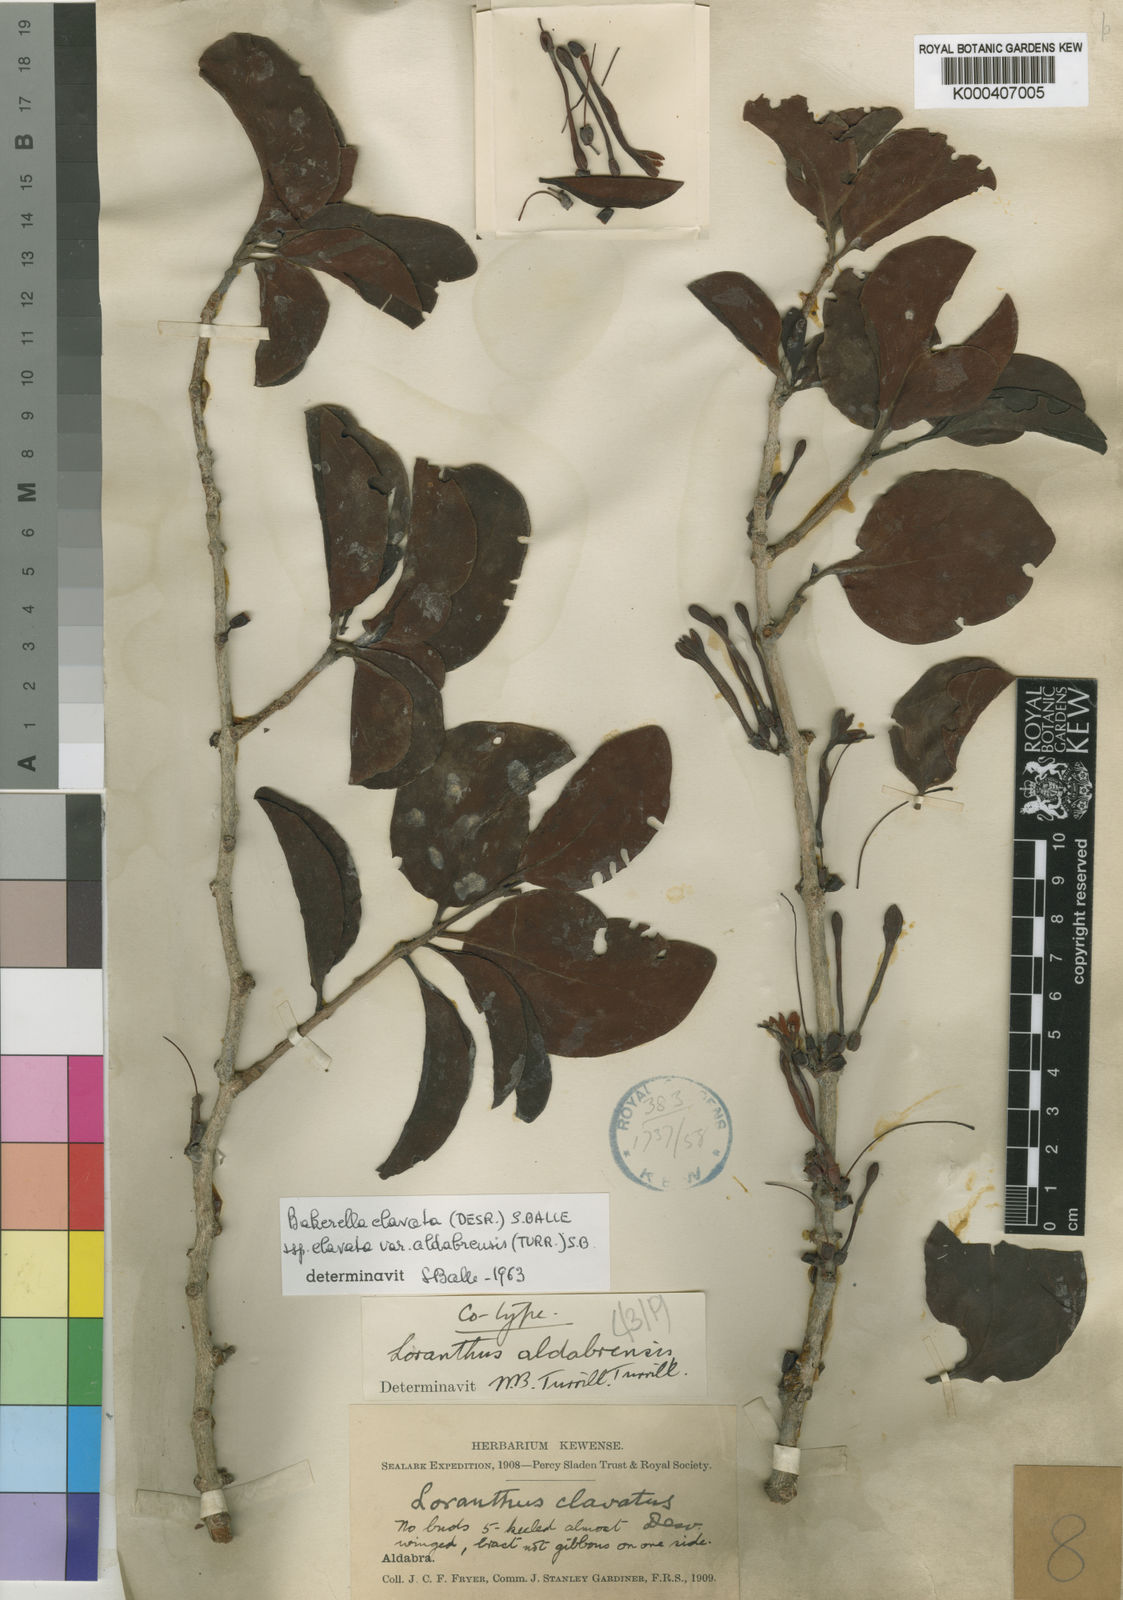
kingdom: Plantae
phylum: Tracheophyta
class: Magnoliopsida
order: Santalales
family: Loranthaceae
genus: Bakerella
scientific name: Bakerella clavata
